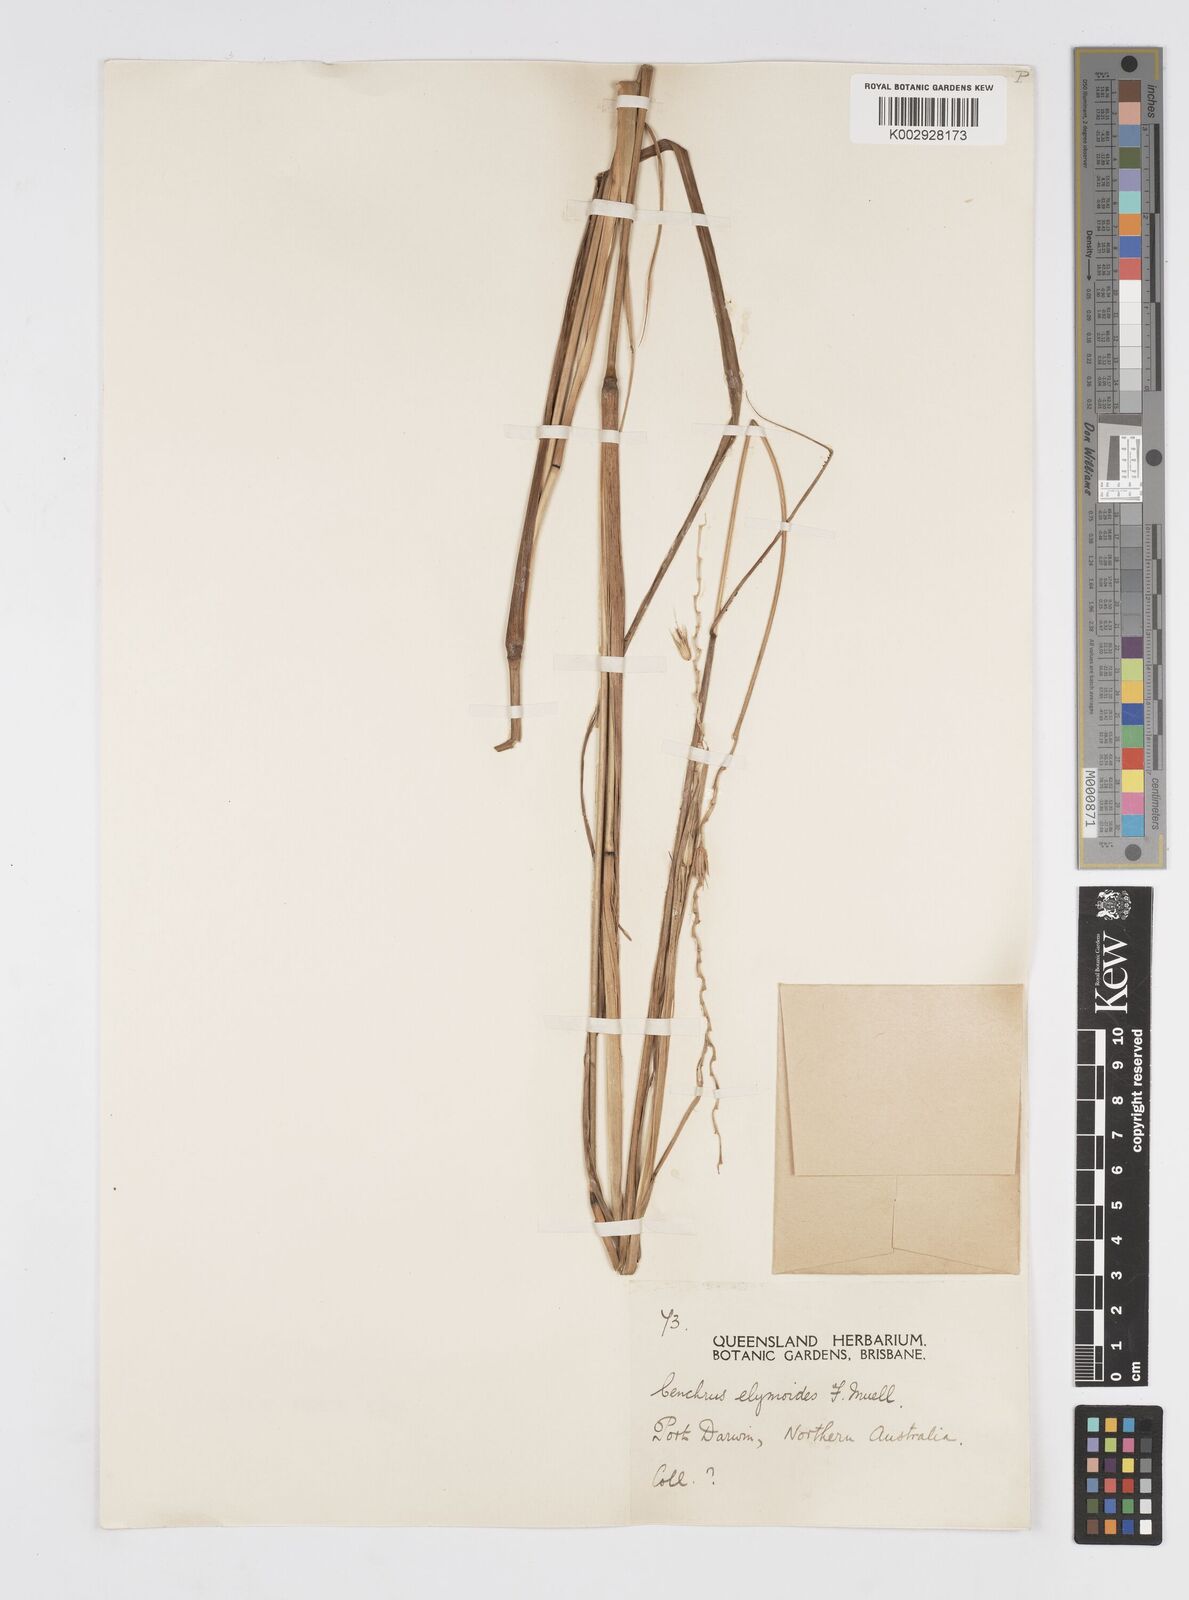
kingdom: Plantae
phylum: Tracheophyta
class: Liliopsida
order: Poales
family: Poaceae
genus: Cenchrus
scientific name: Cenchrus elymoides
